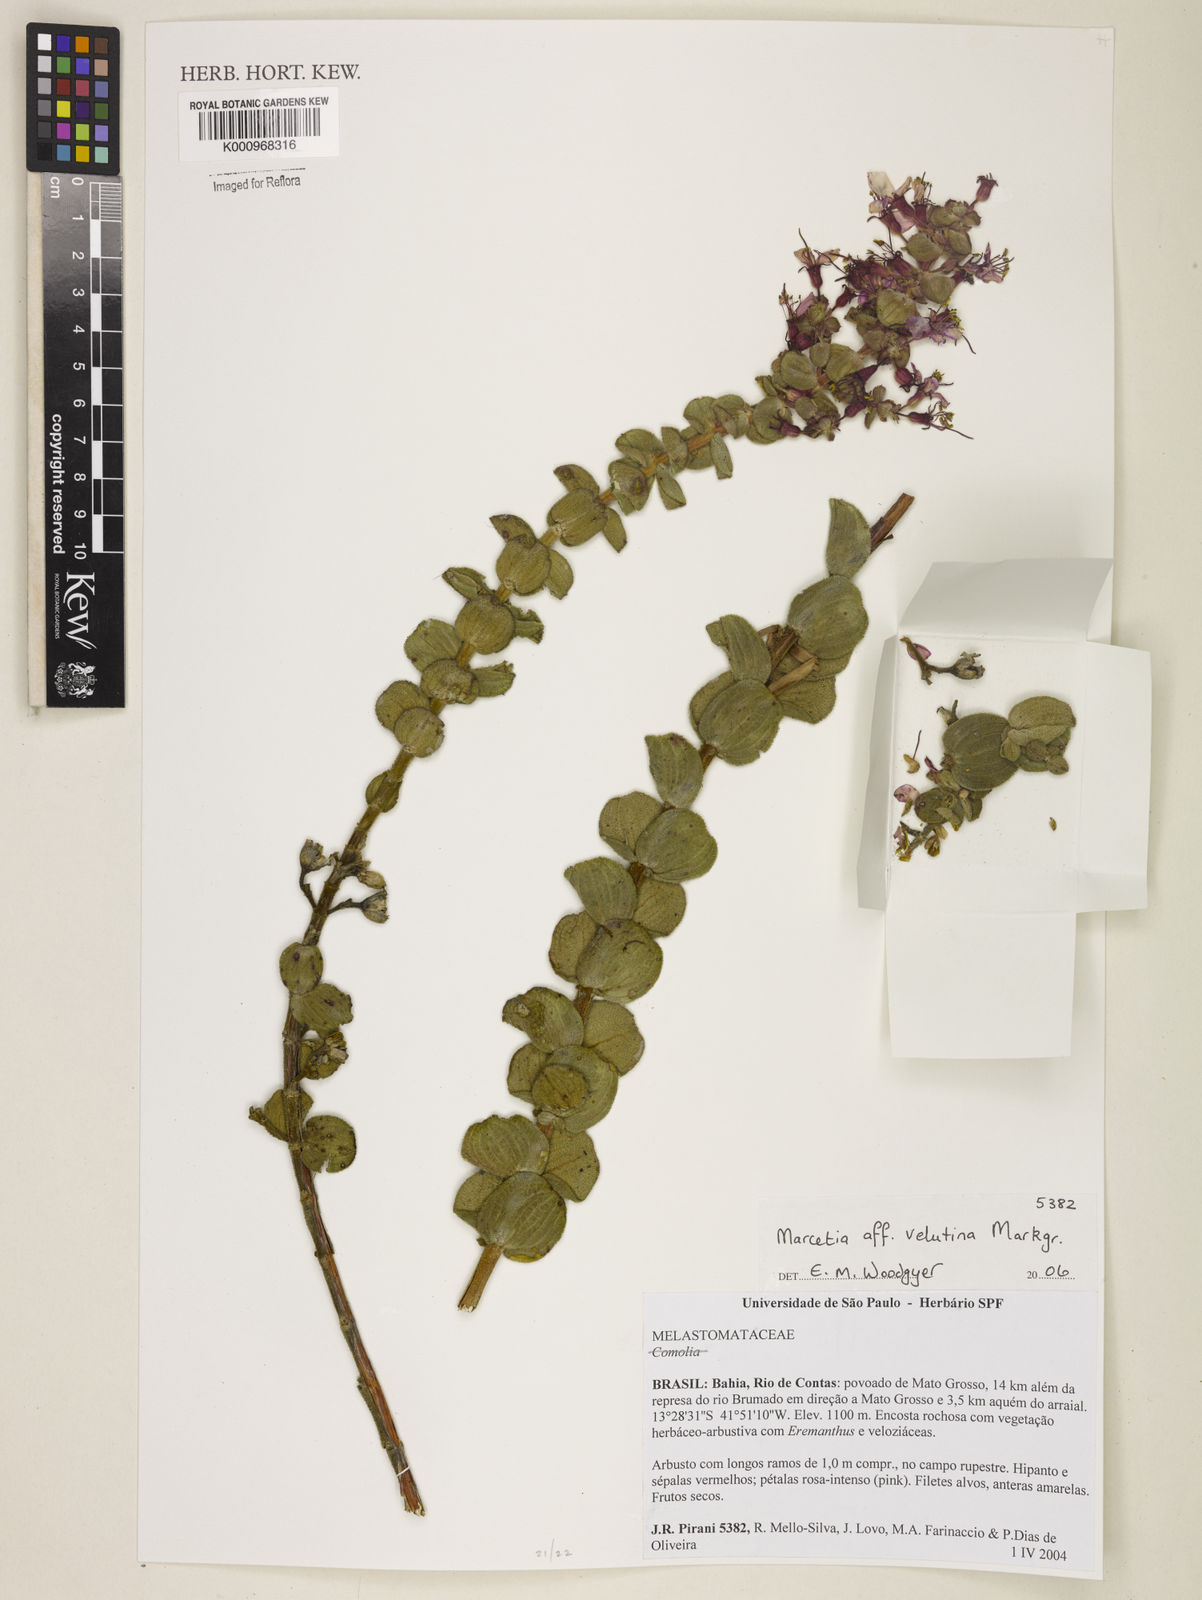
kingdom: Plantae
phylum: Tracheophyta
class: Magnoliopsida
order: Myrtales
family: Melastomataceae
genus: Marcetia
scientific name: Marcetia
